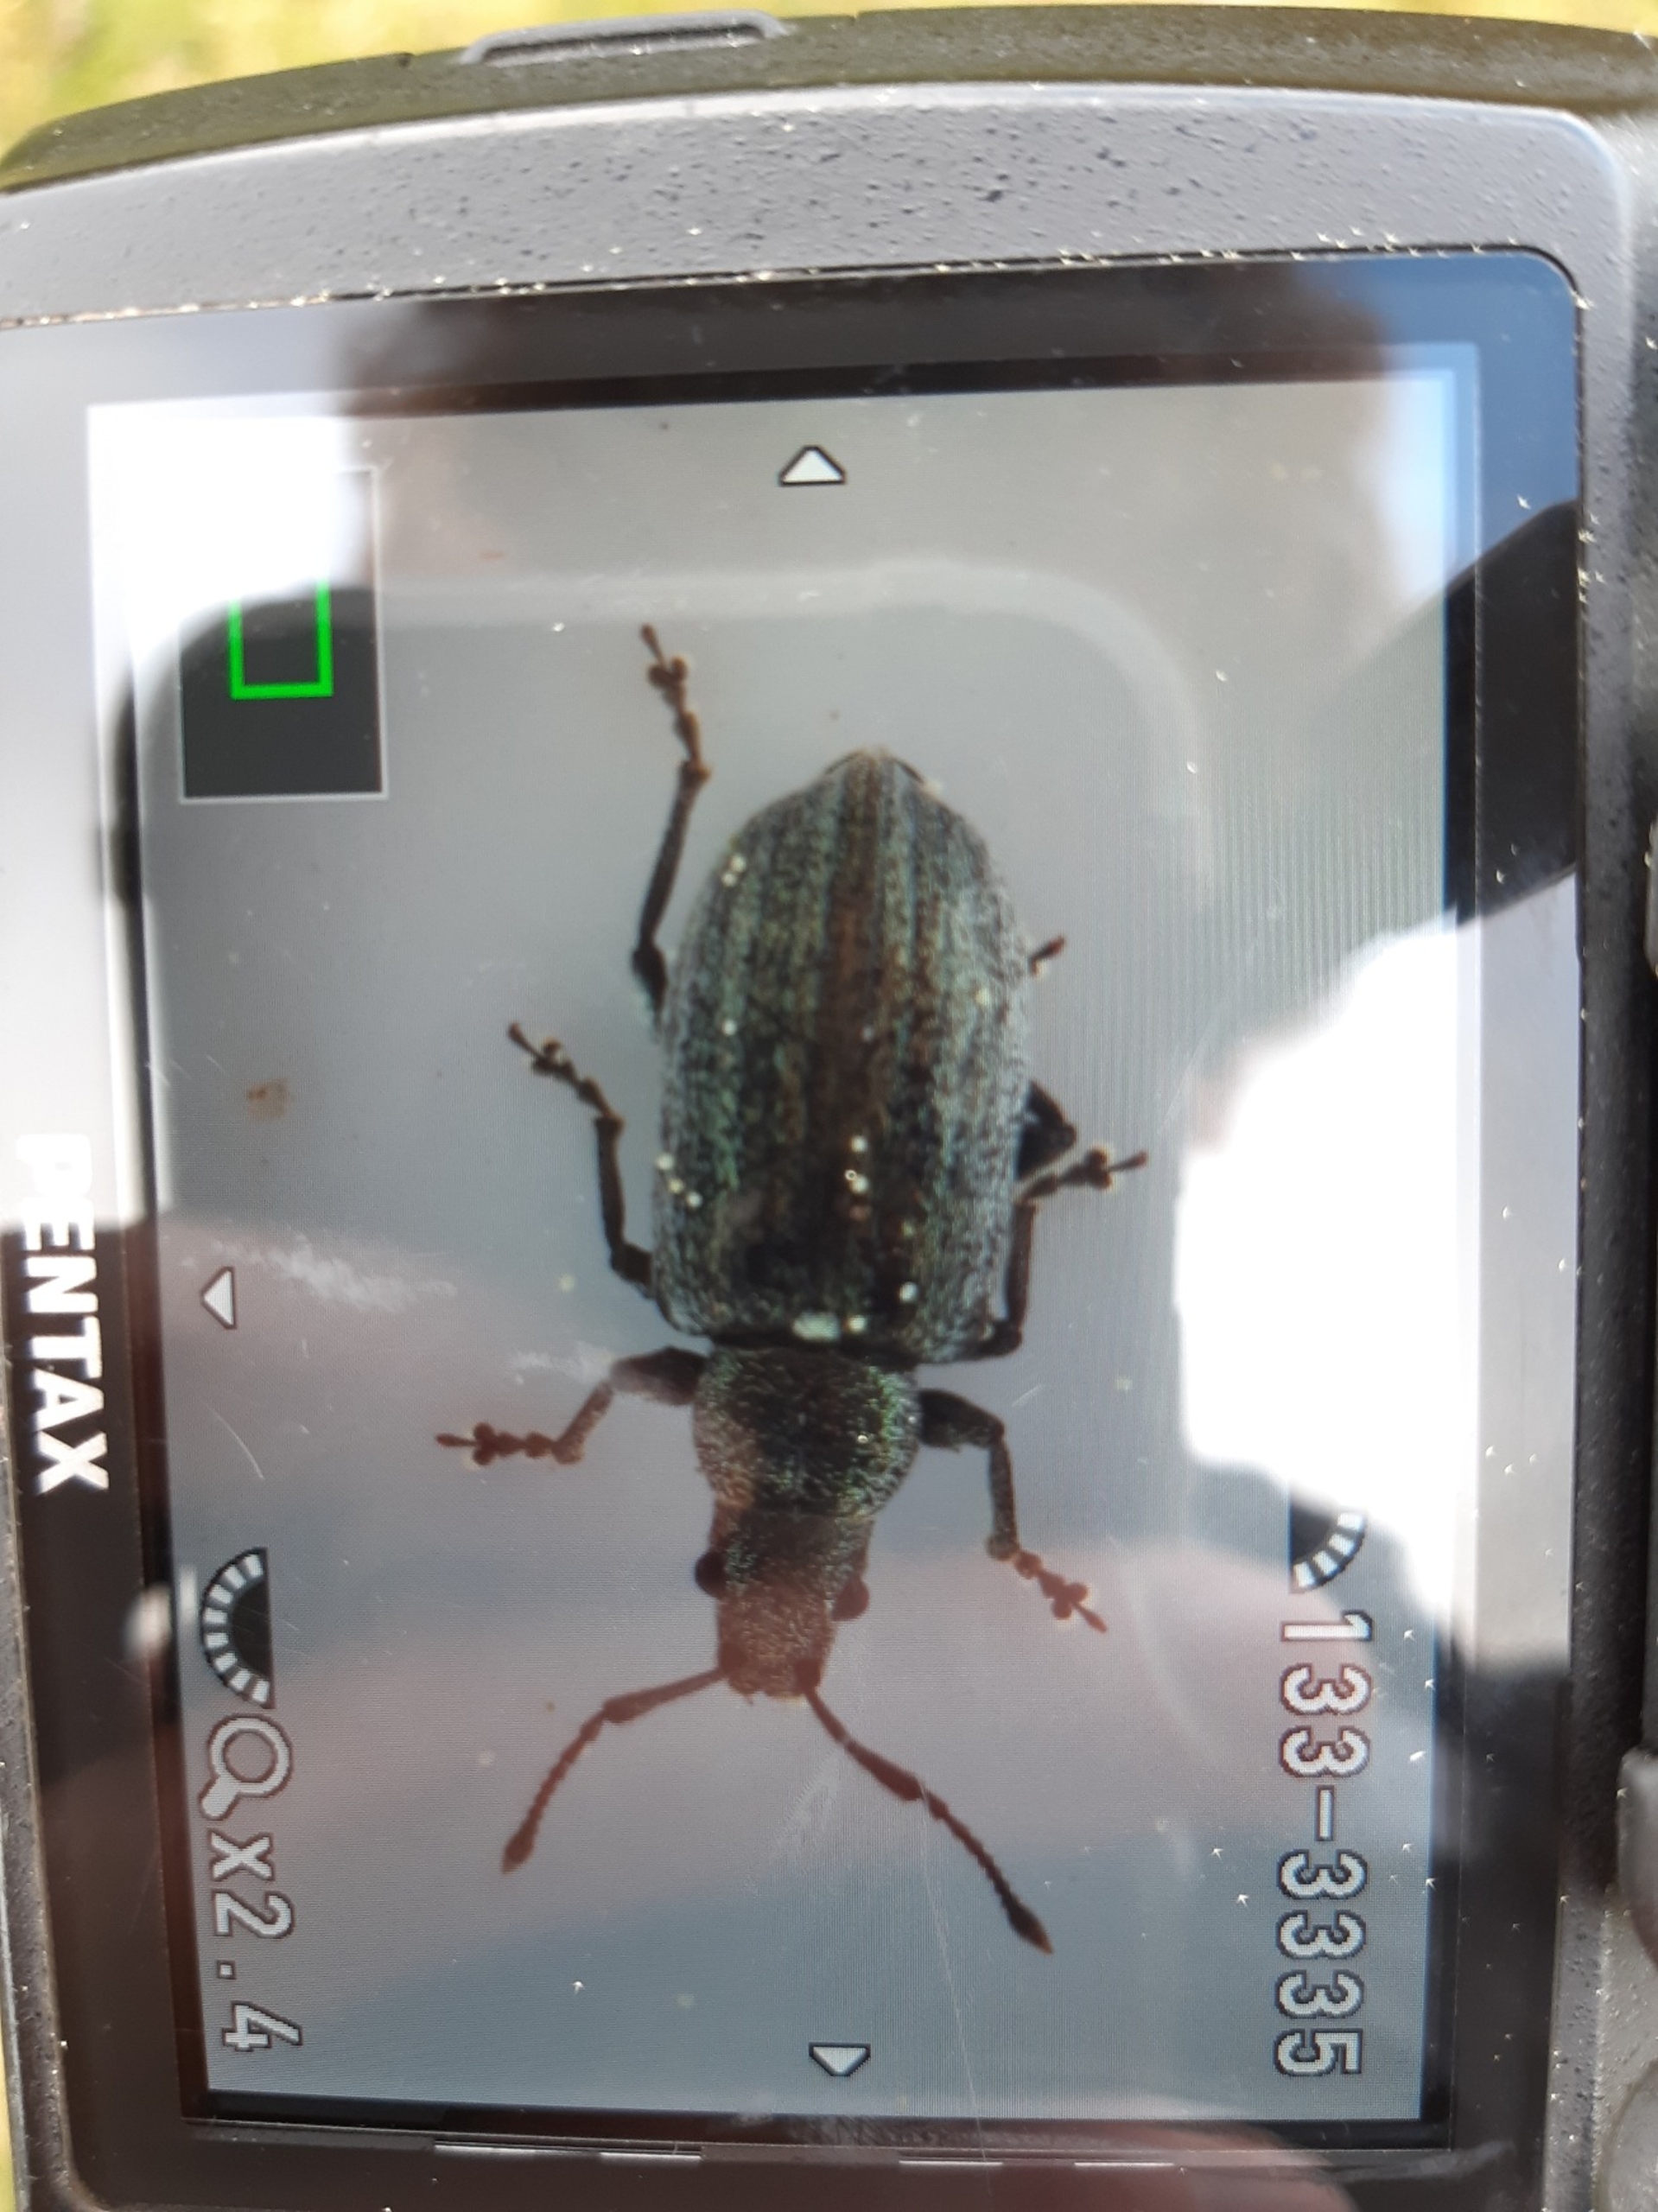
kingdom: Animalia
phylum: Arthropoda
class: Insecta
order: Coleoptera
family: Curculionidae
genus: Phyllobius
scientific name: Phyllobius pyri
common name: Pæreløvsnudebille
